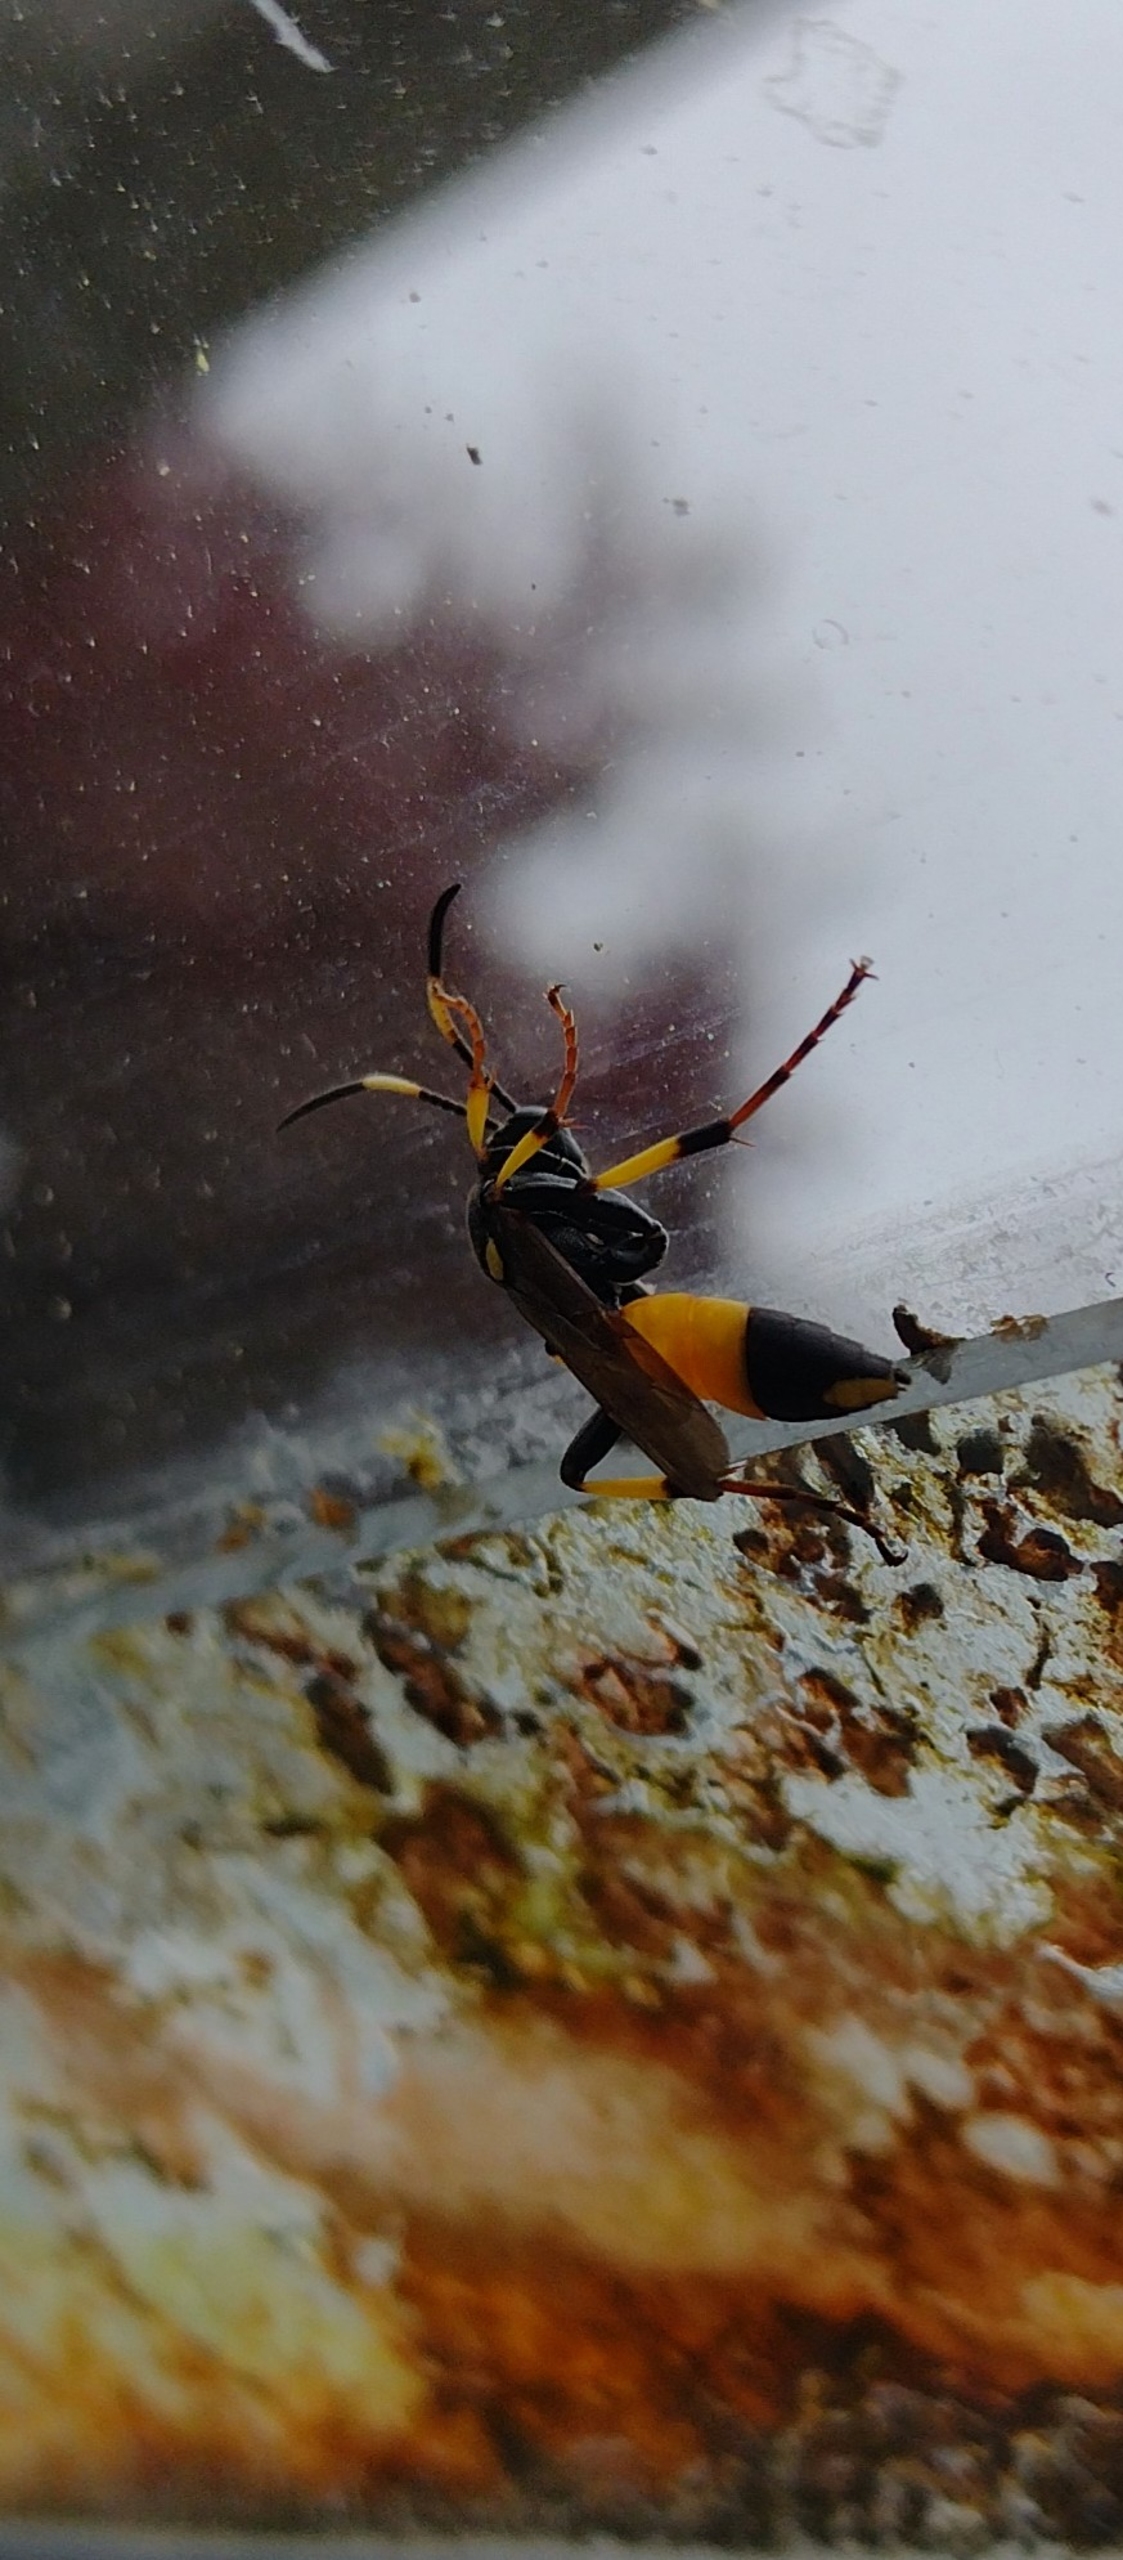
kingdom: Animalia
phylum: Arthropoda
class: Insecta
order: Hymenoptera
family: Ichneumonidae
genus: Ichneumon
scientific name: Ichneumon stramentor
